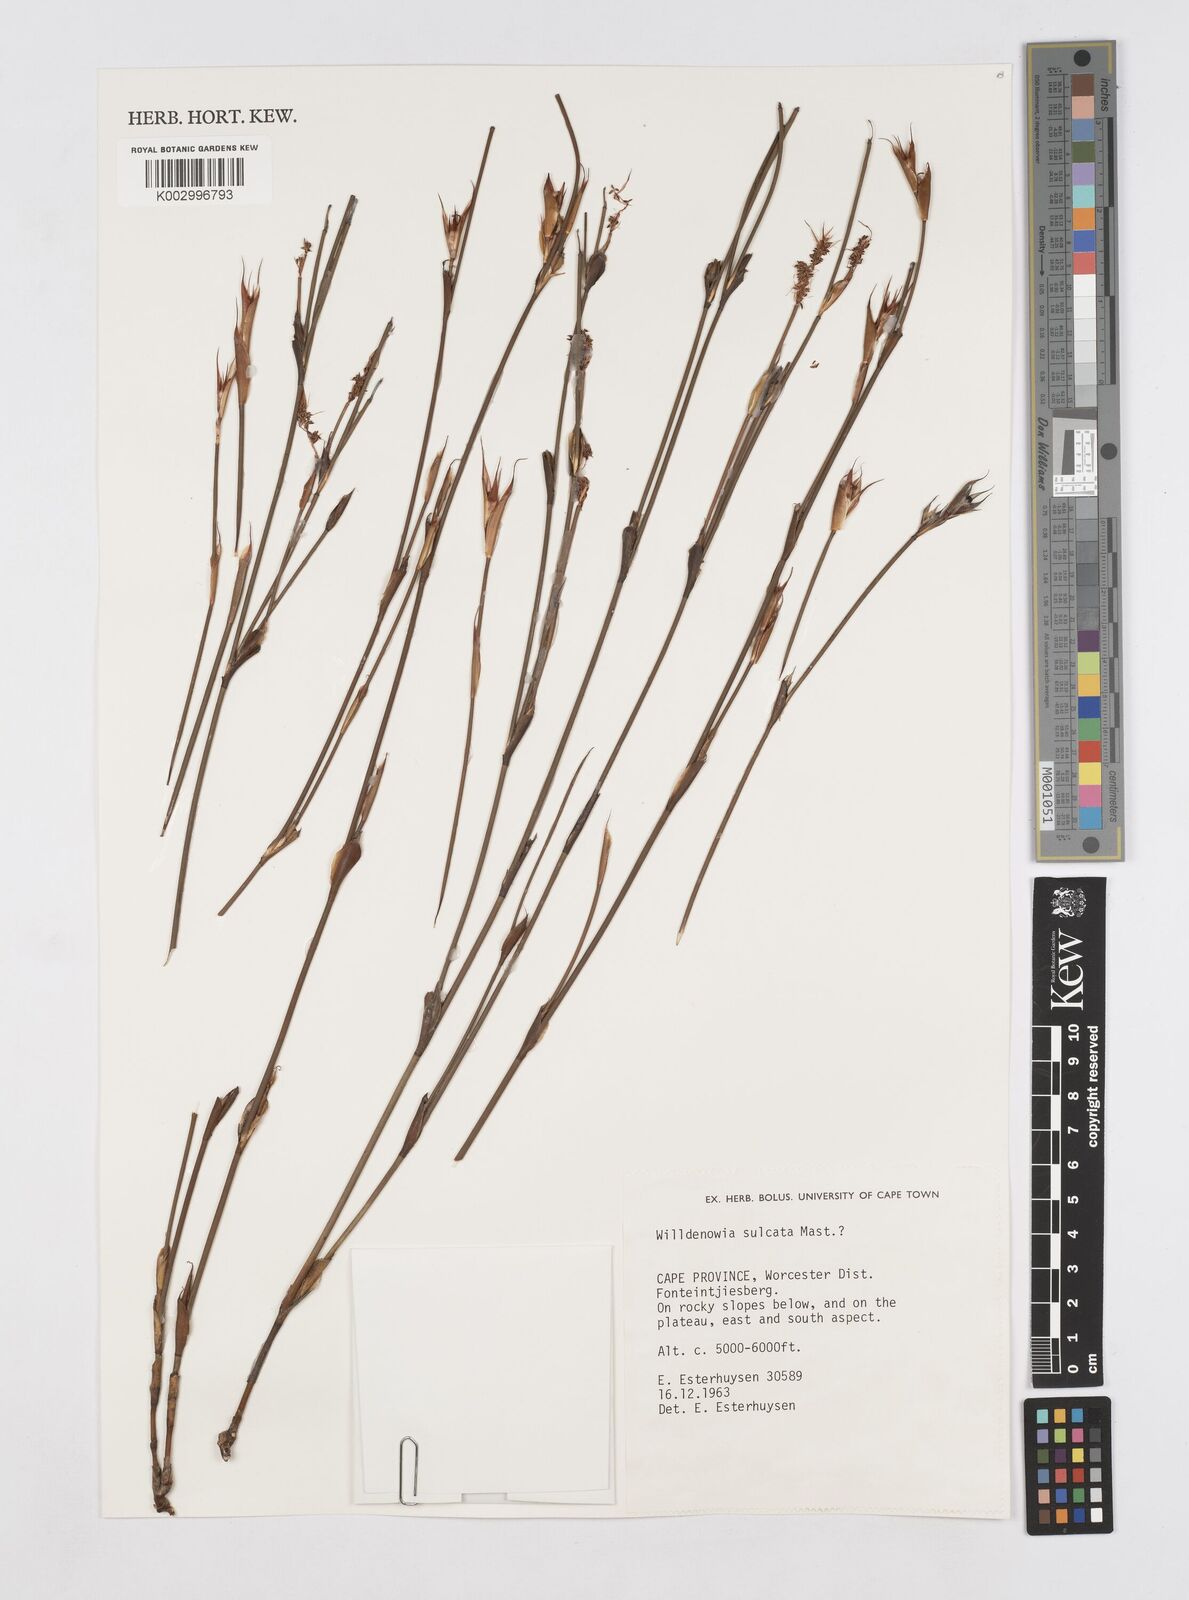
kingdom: Plantae
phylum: Tracheophyta
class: Liliopsida
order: Poales
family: Restionaceae
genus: Willdenowia
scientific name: Willdenowia sulcata
